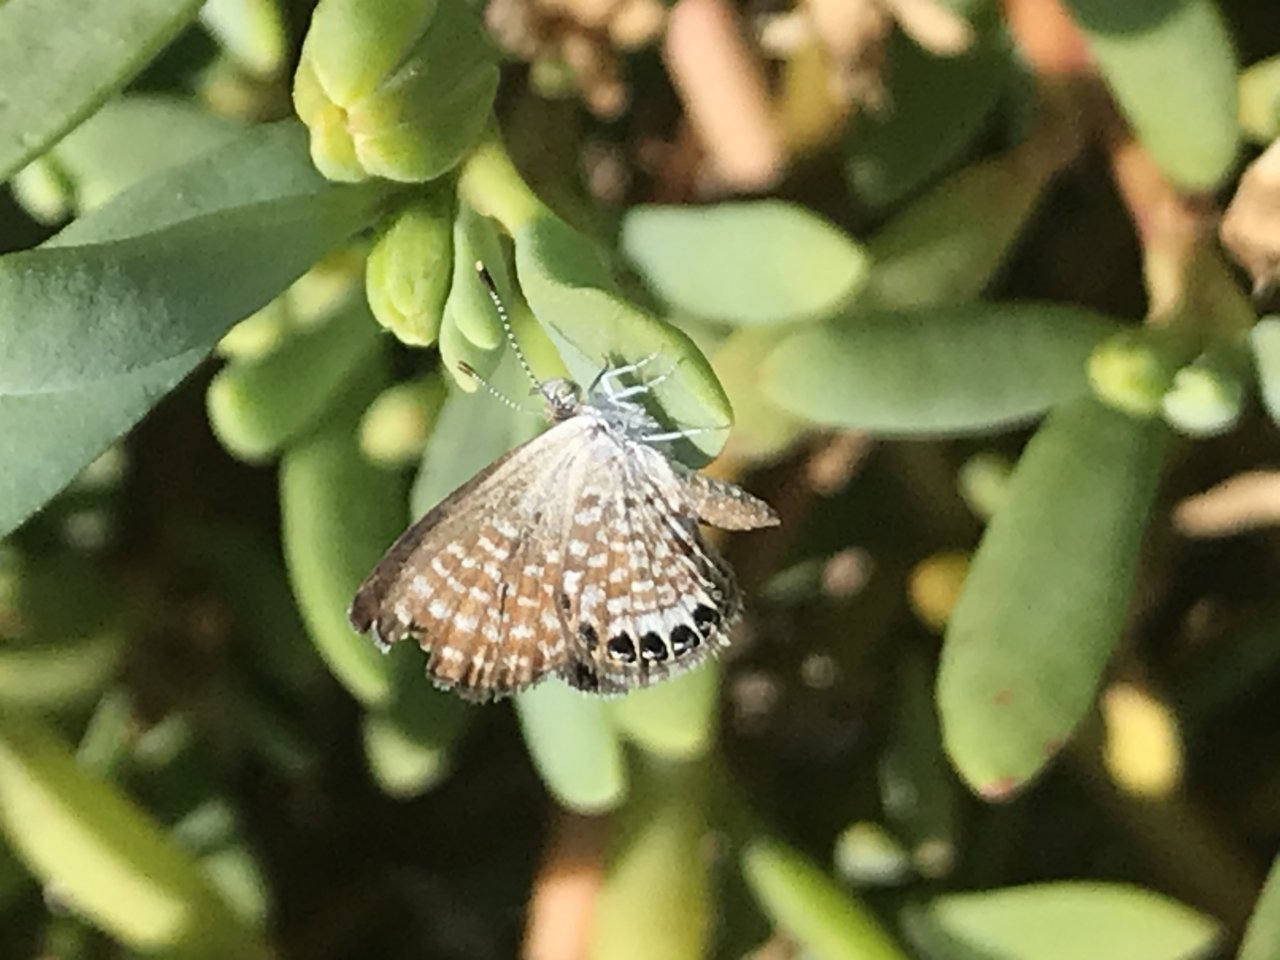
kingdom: Animalia
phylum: Arthropoda
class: Insecta
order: Lepidoptera
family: Lycaenidae
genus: Brephidium
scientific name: Brephidium exilis
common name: Western Pygmy-Blue
